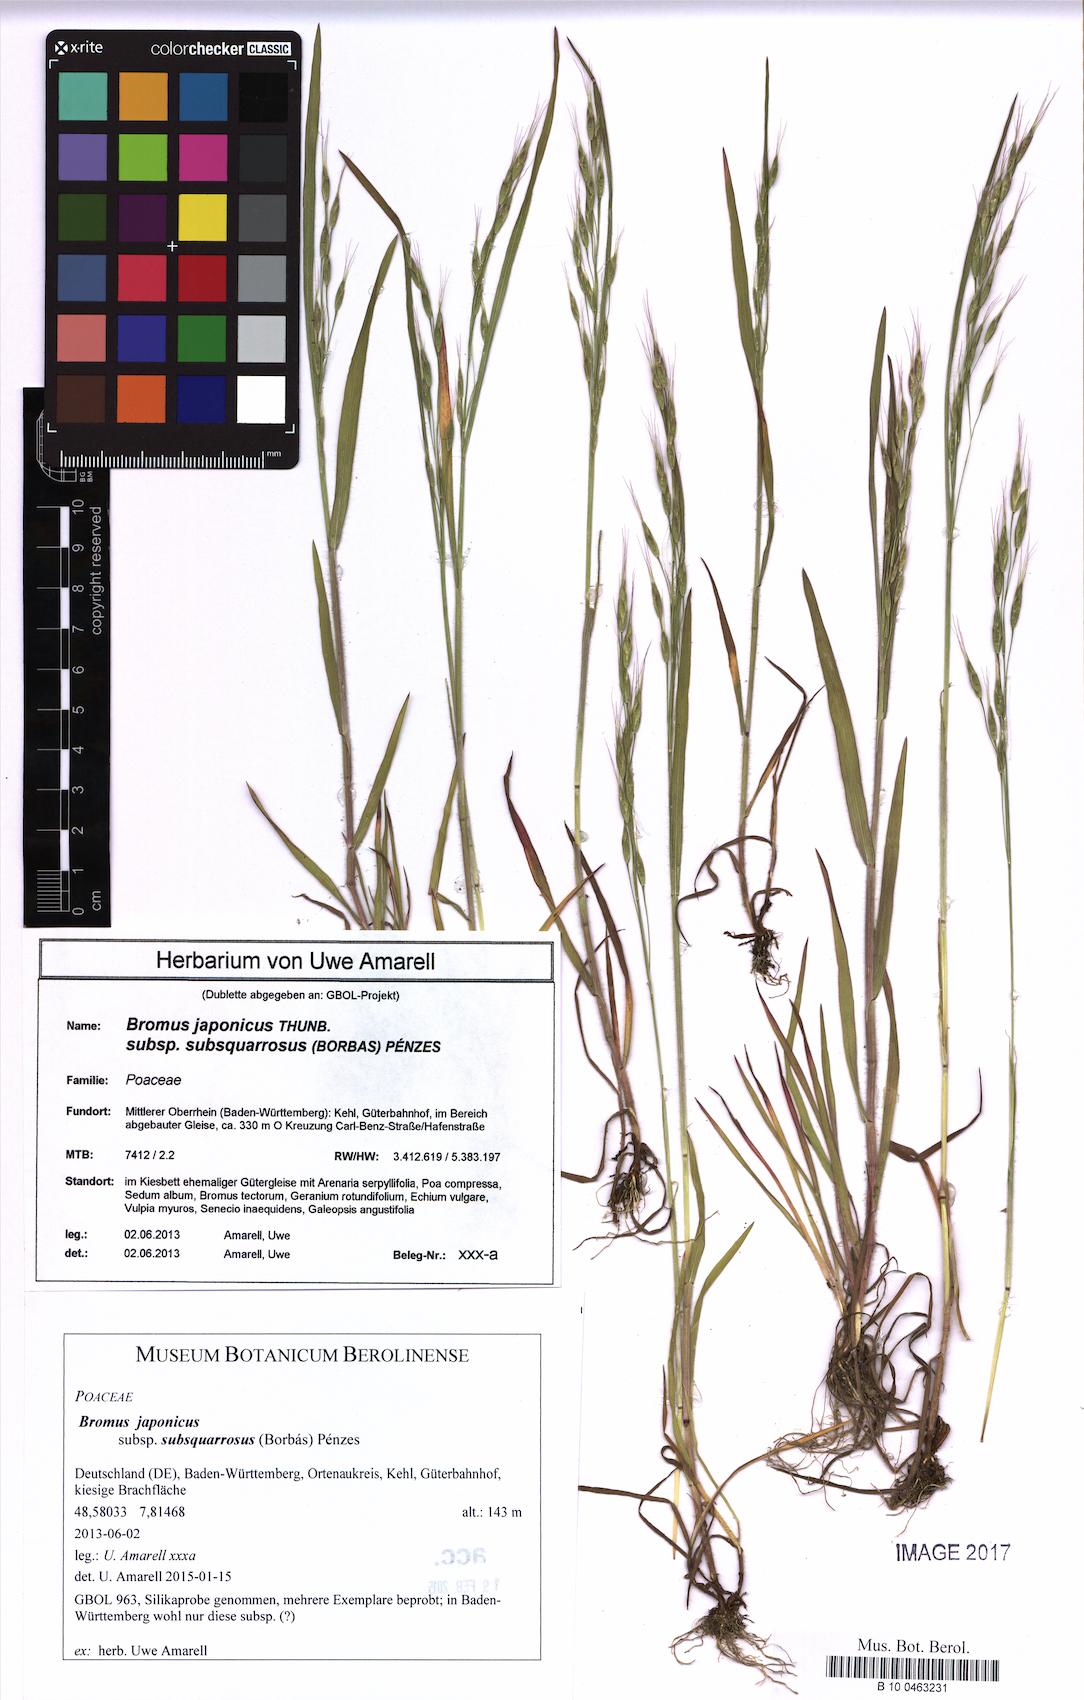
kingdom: Plantae
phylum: Tracheophyta
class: Liliopsida
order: Poales
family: Poaceae
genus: Bromus
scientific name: Bromus japonicus
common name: Japanese brome
